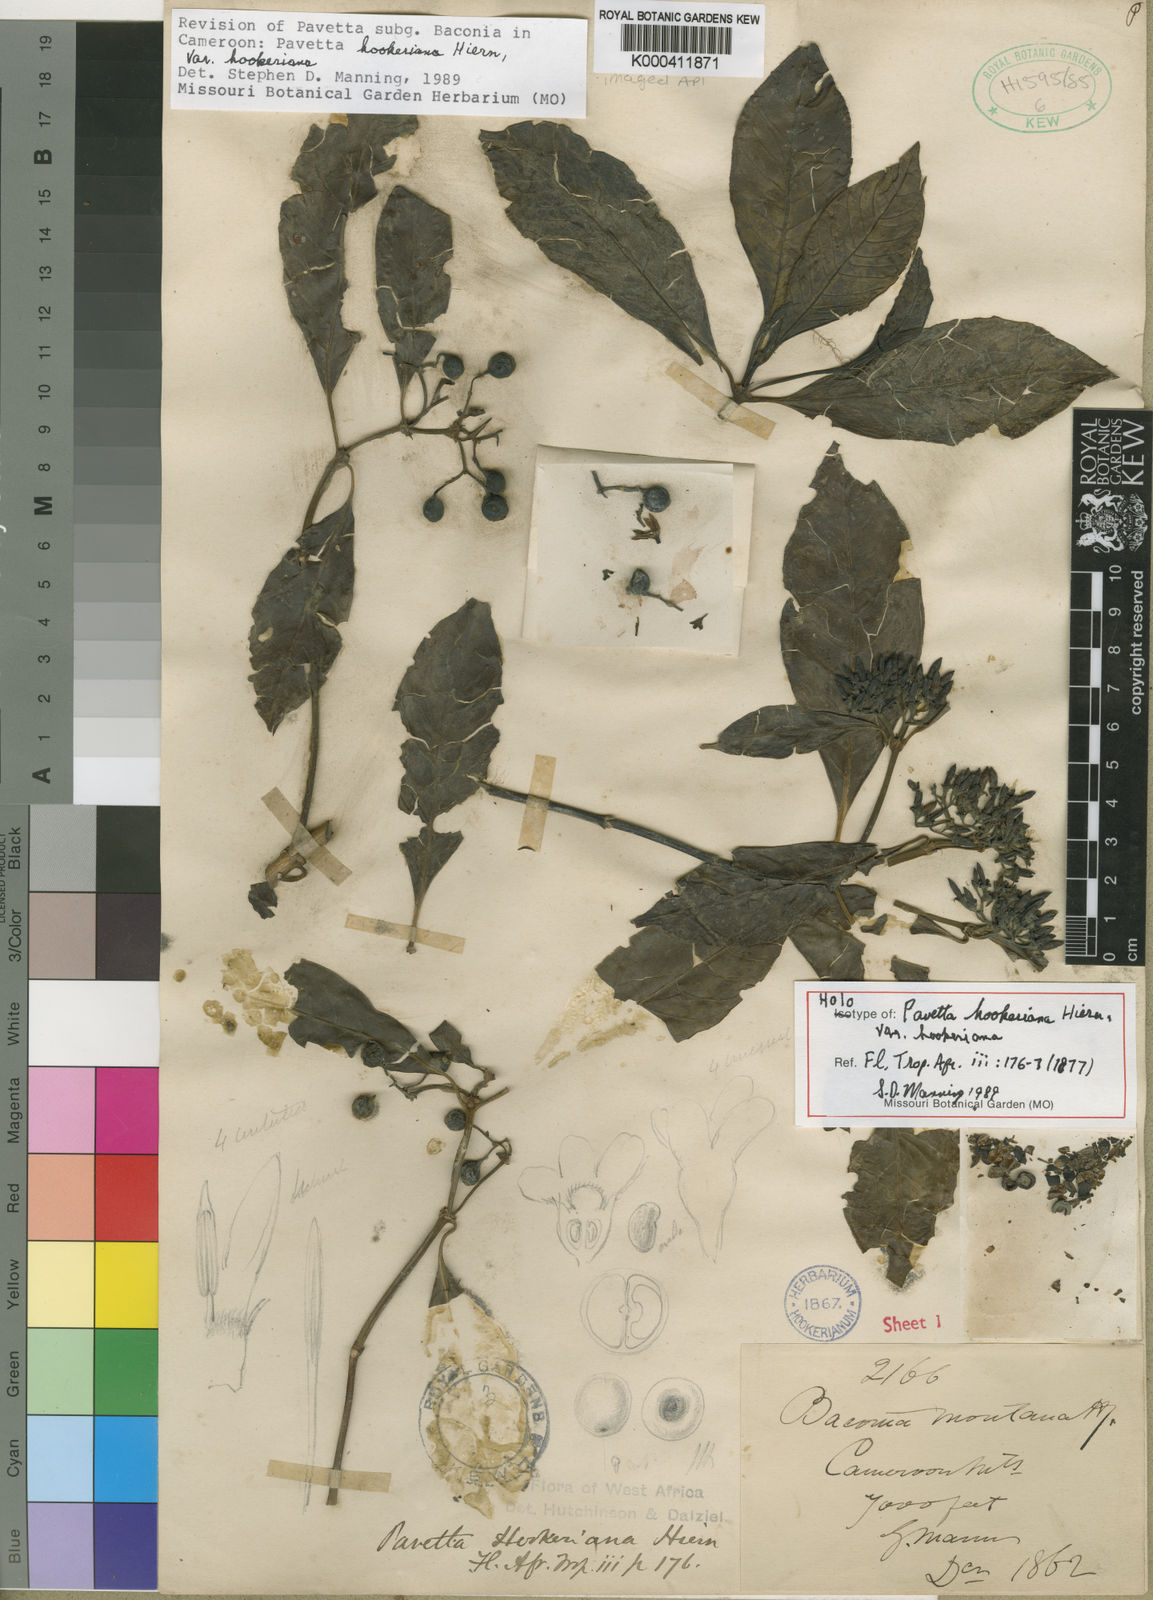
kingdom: Plantae
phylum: Tracheophyta
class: Magnoliopsida
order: Gentianales
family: Rubiaceae
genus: Pavetta
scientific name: Pavetta hookeriana
